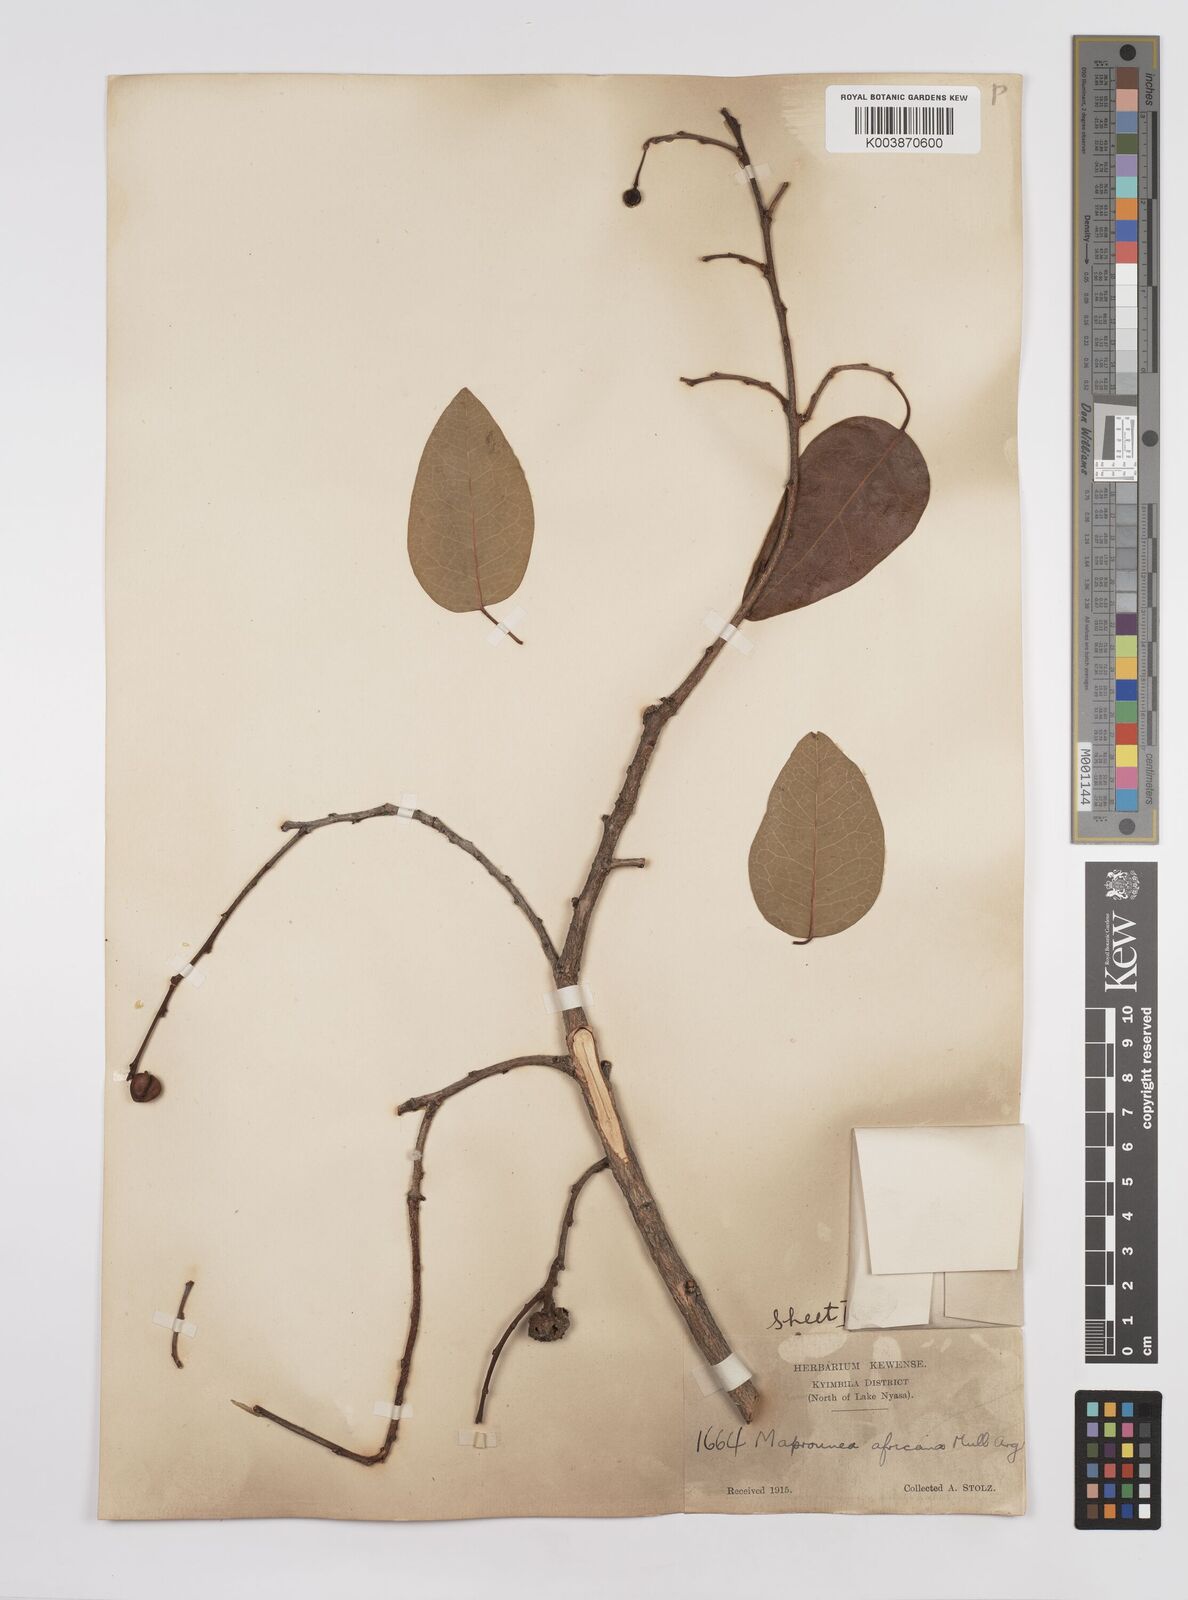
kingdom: Plantae
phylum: Tracheophyta
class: Magnoliopsida
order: Malpighiales
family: Euphorbiaceae
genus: Maprounea
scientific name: Maprounea africana
